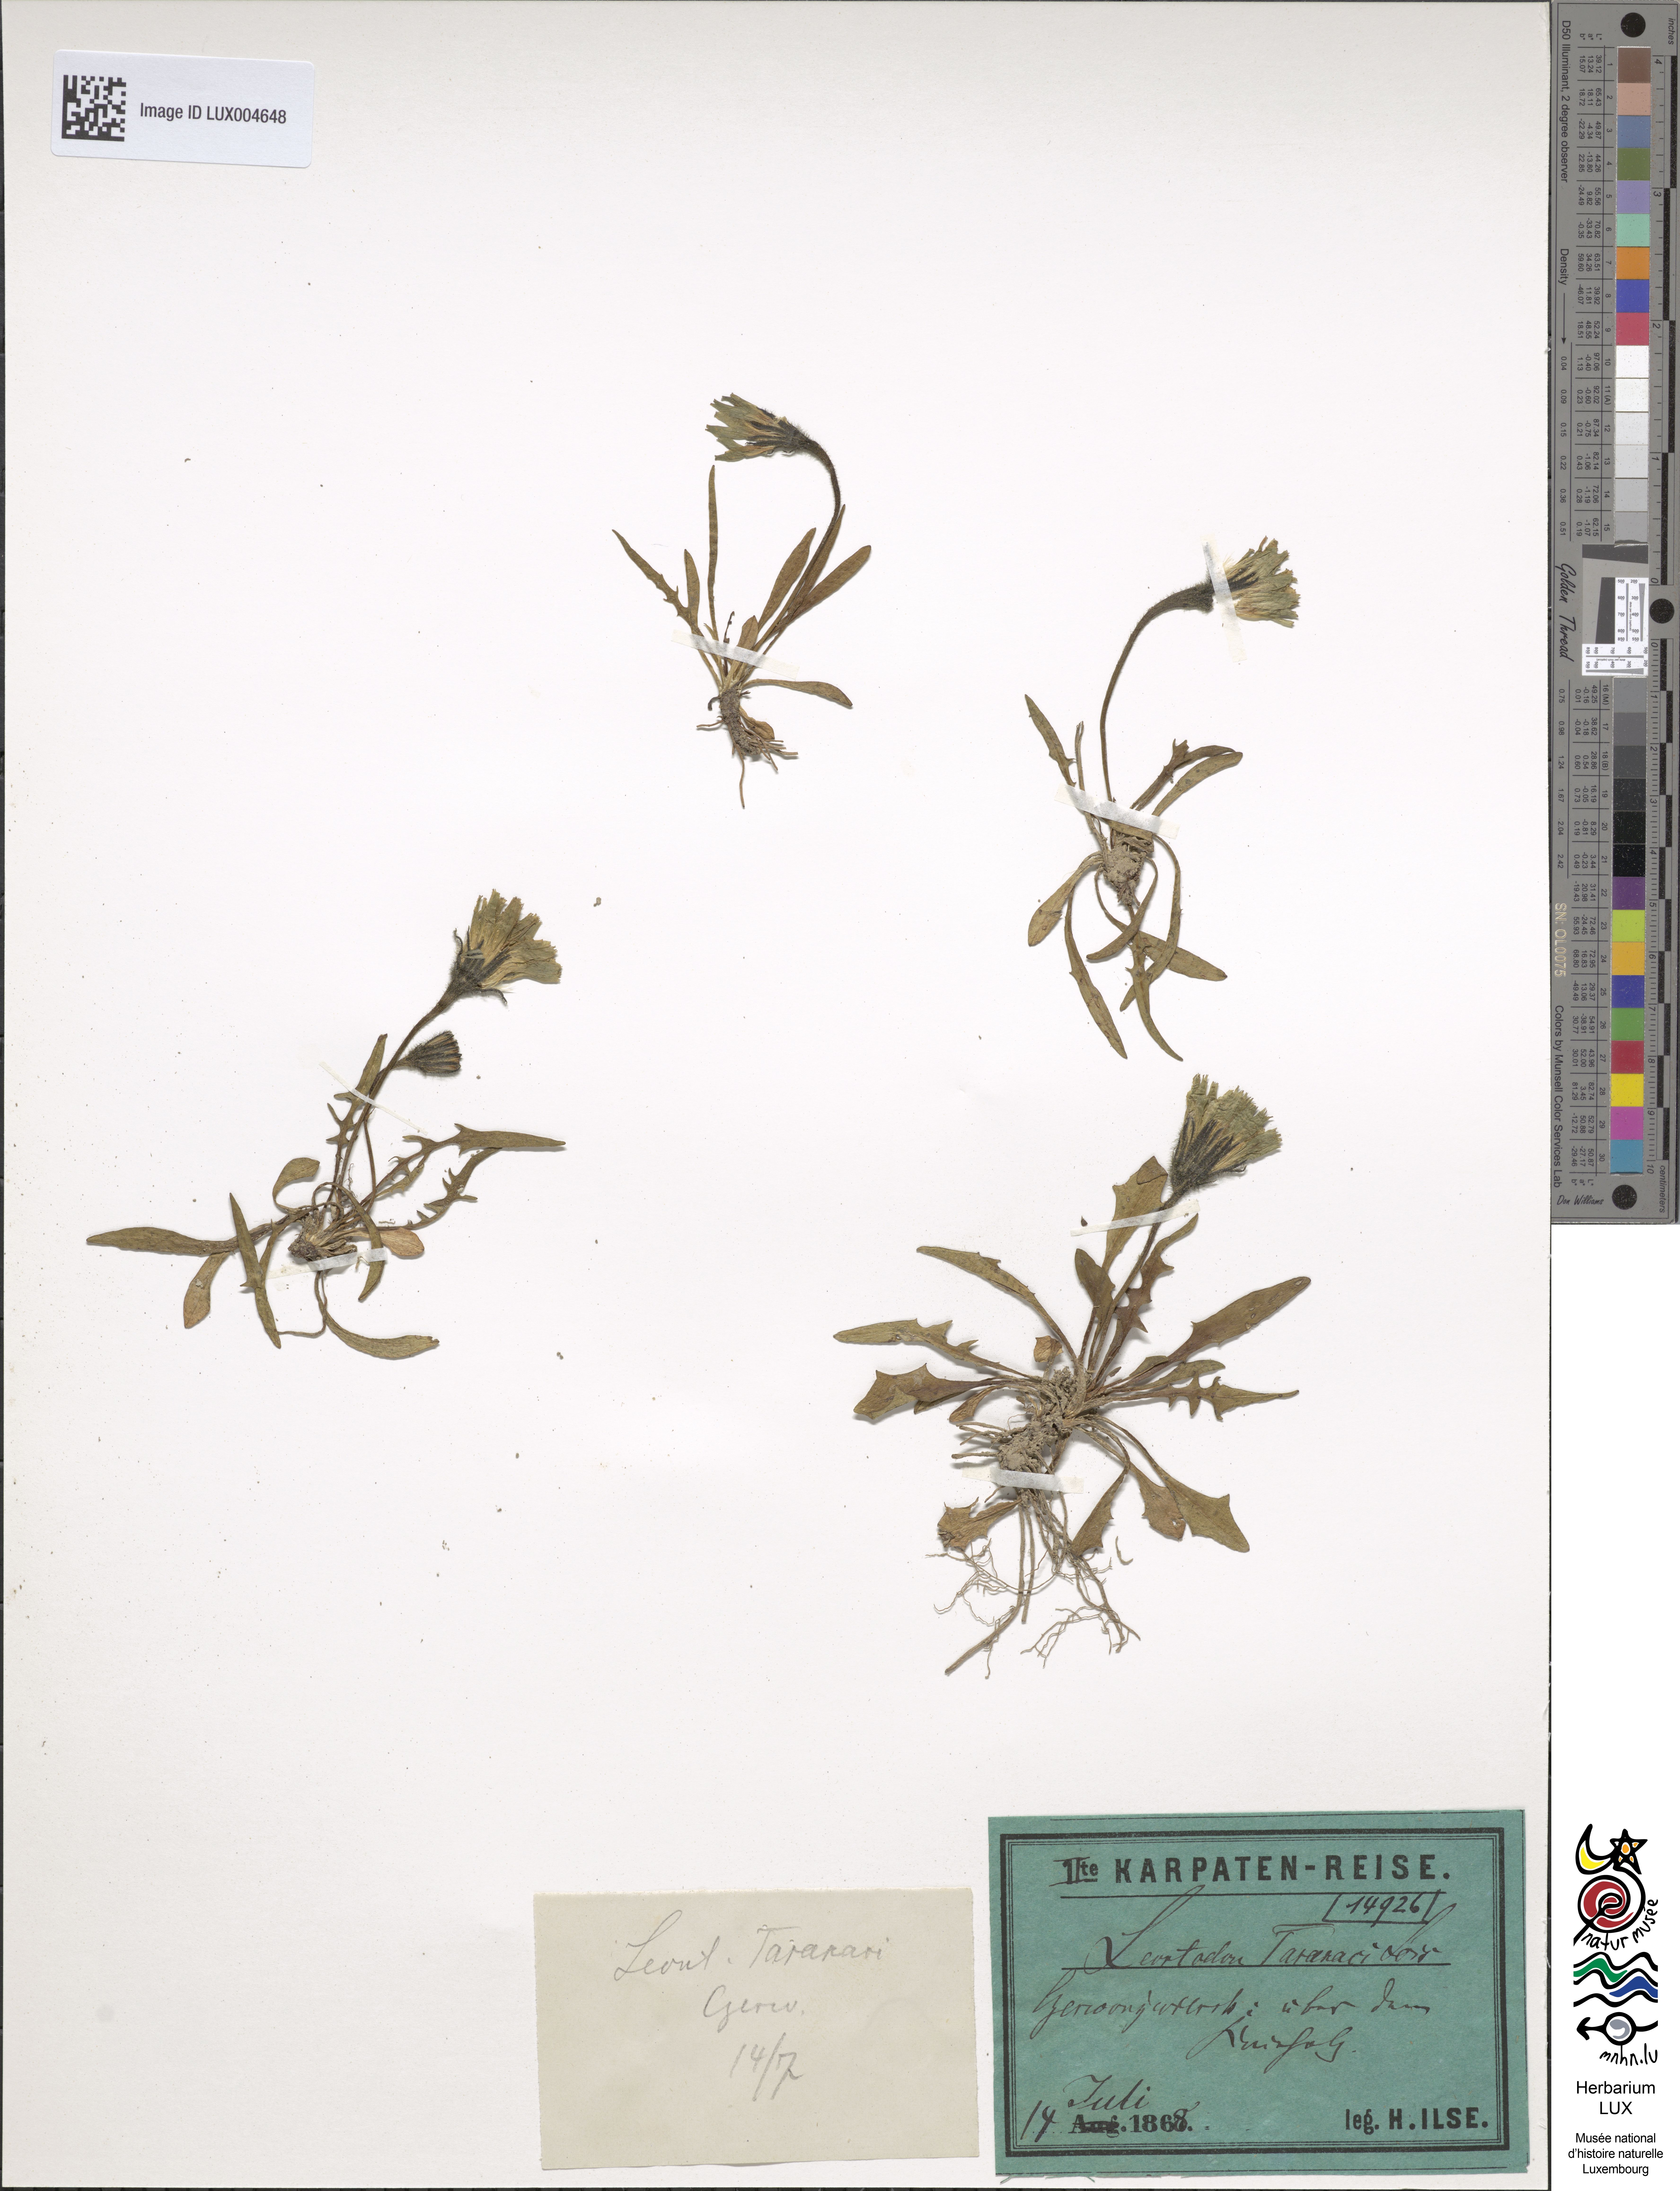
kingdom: Plantae
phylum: Tracheophyta
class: Magnoliopsida
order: Asterales
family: Asteraceae
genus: Scorzoneroides
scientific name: Scorzoneroides montana
